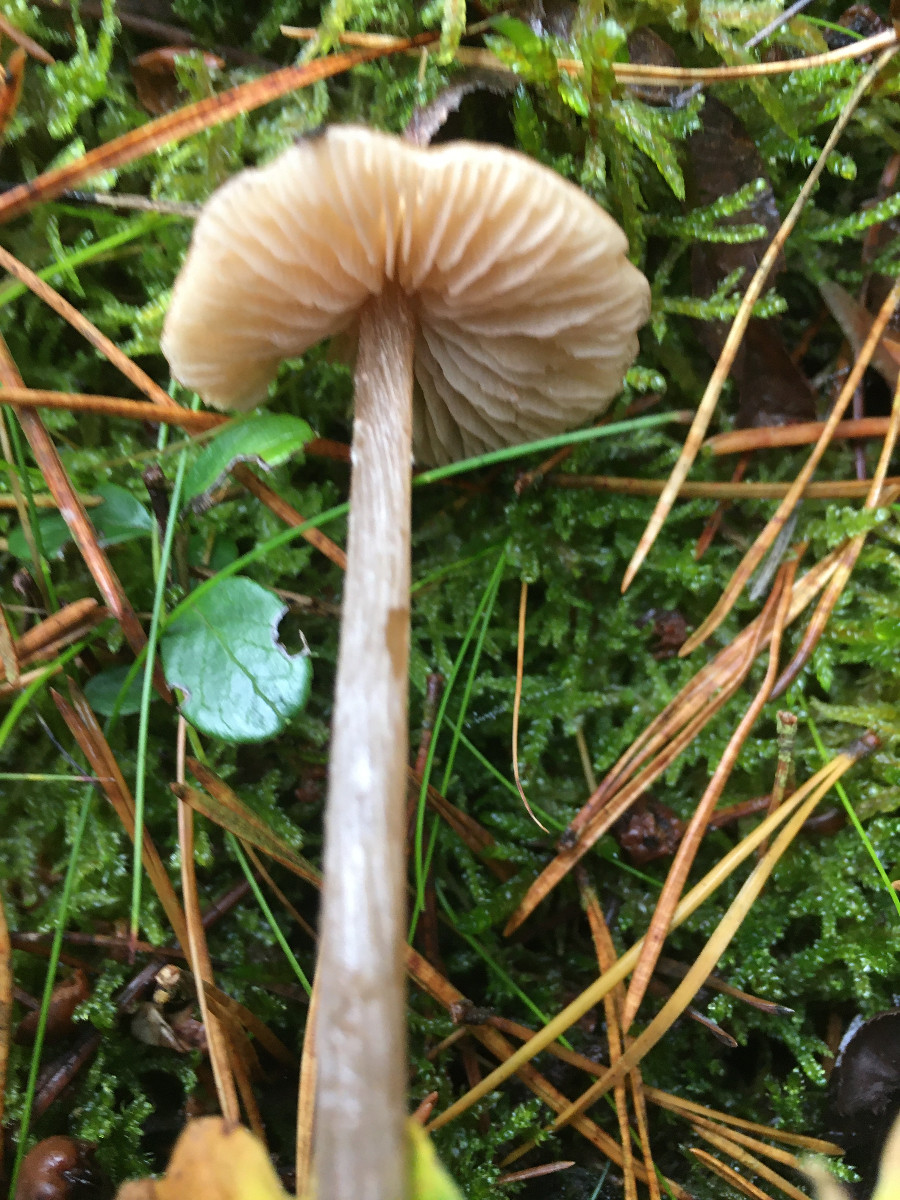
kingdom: Fungi
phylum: Basidiomycota
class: Agaricomycetes
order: Agaricales
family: Entolomataceae
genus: Entoloma
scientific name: Entoloma cetratum
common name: voks-rødblad
